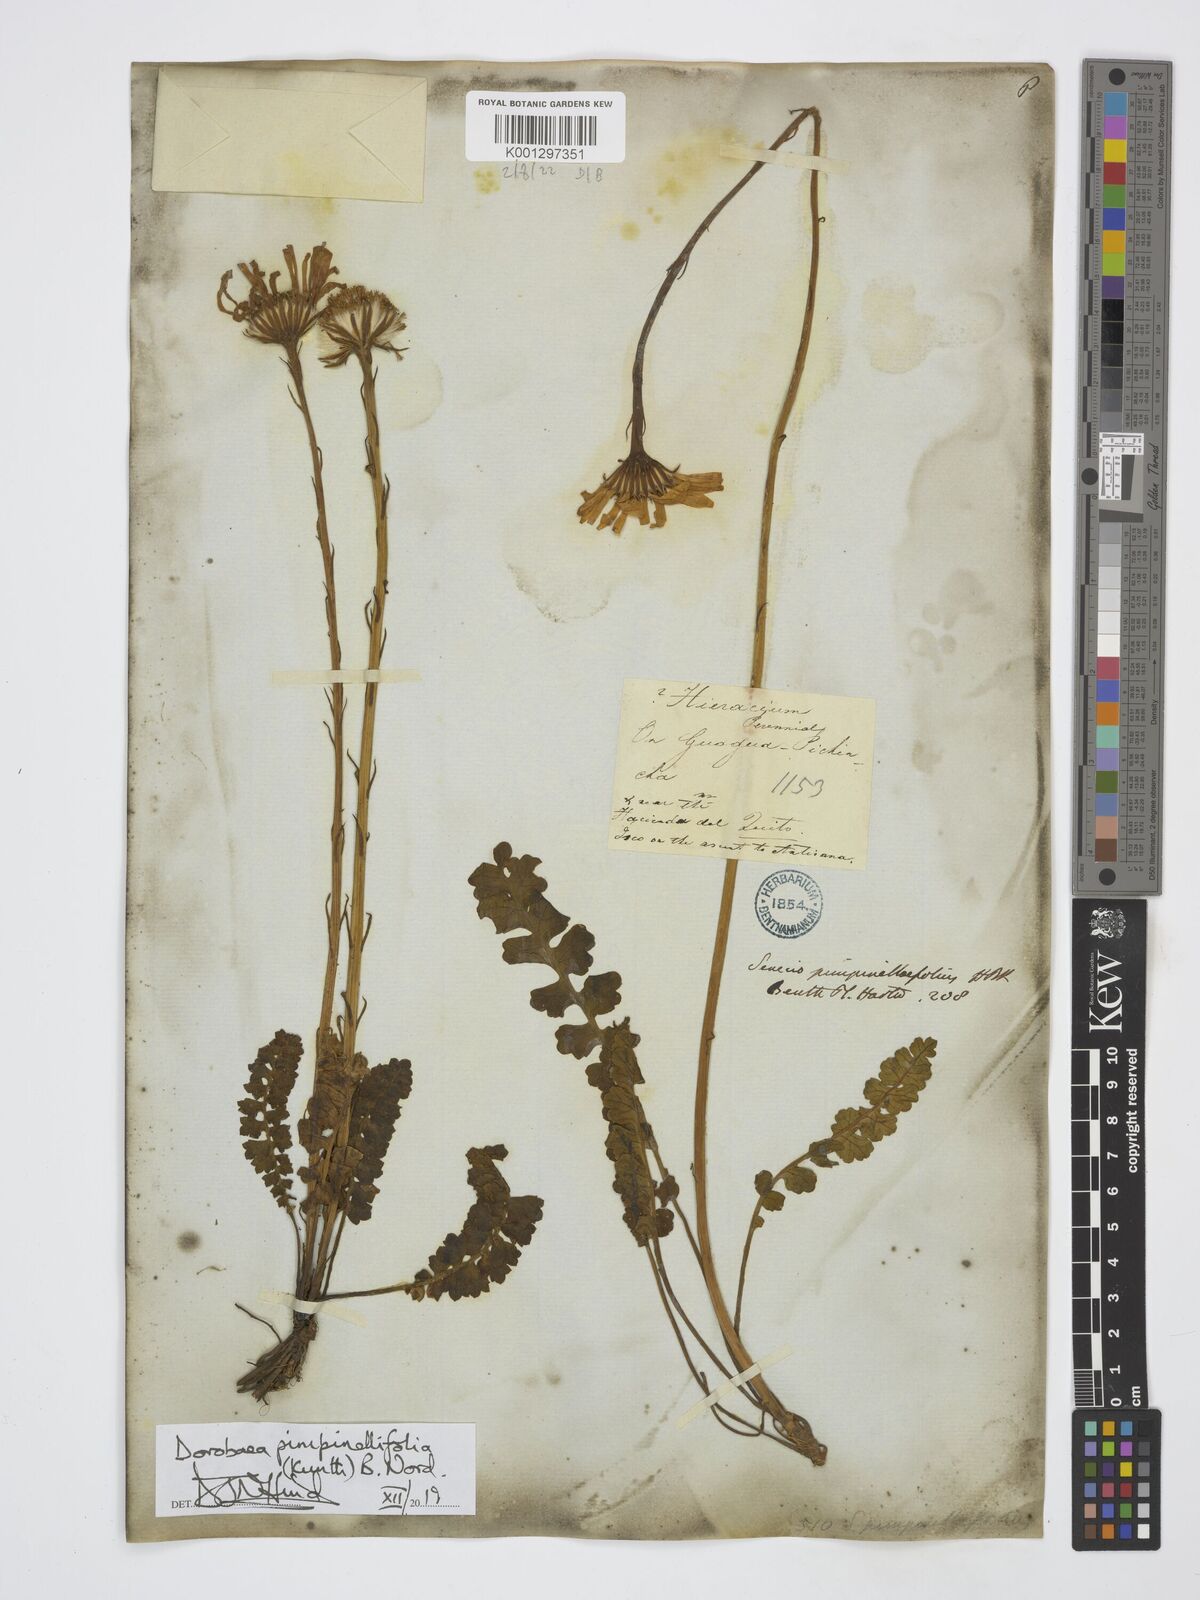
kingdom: Plantae
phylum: Tracheophyta
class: Magnoliopsida
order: Asterales
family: Asteraceae
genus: Dorobaea
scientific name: Dorobaea pimpinellifolia
